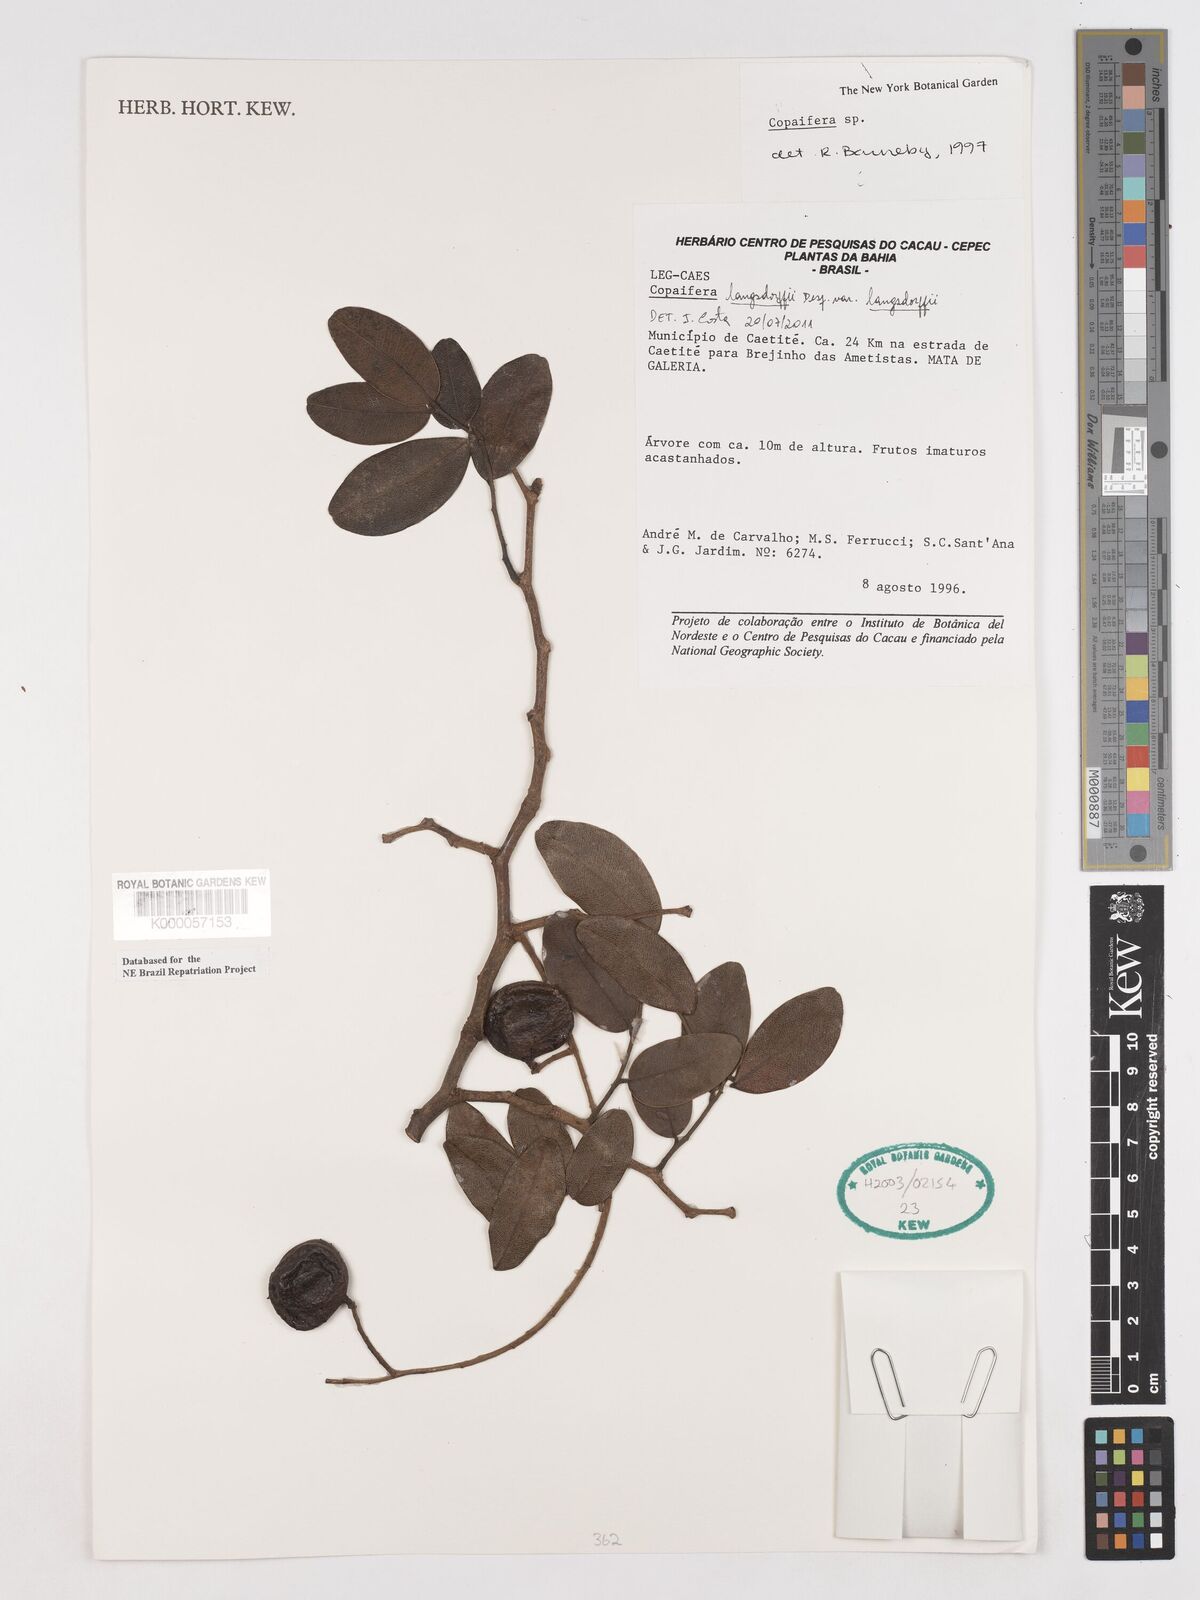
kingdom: Plantae
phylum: Tracheophyta
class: Magnoliopsida
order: Fabales
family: Fabaceae
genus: Copaifera
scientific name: Copaifera langsdorffii
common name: Brazilian diesel tree
